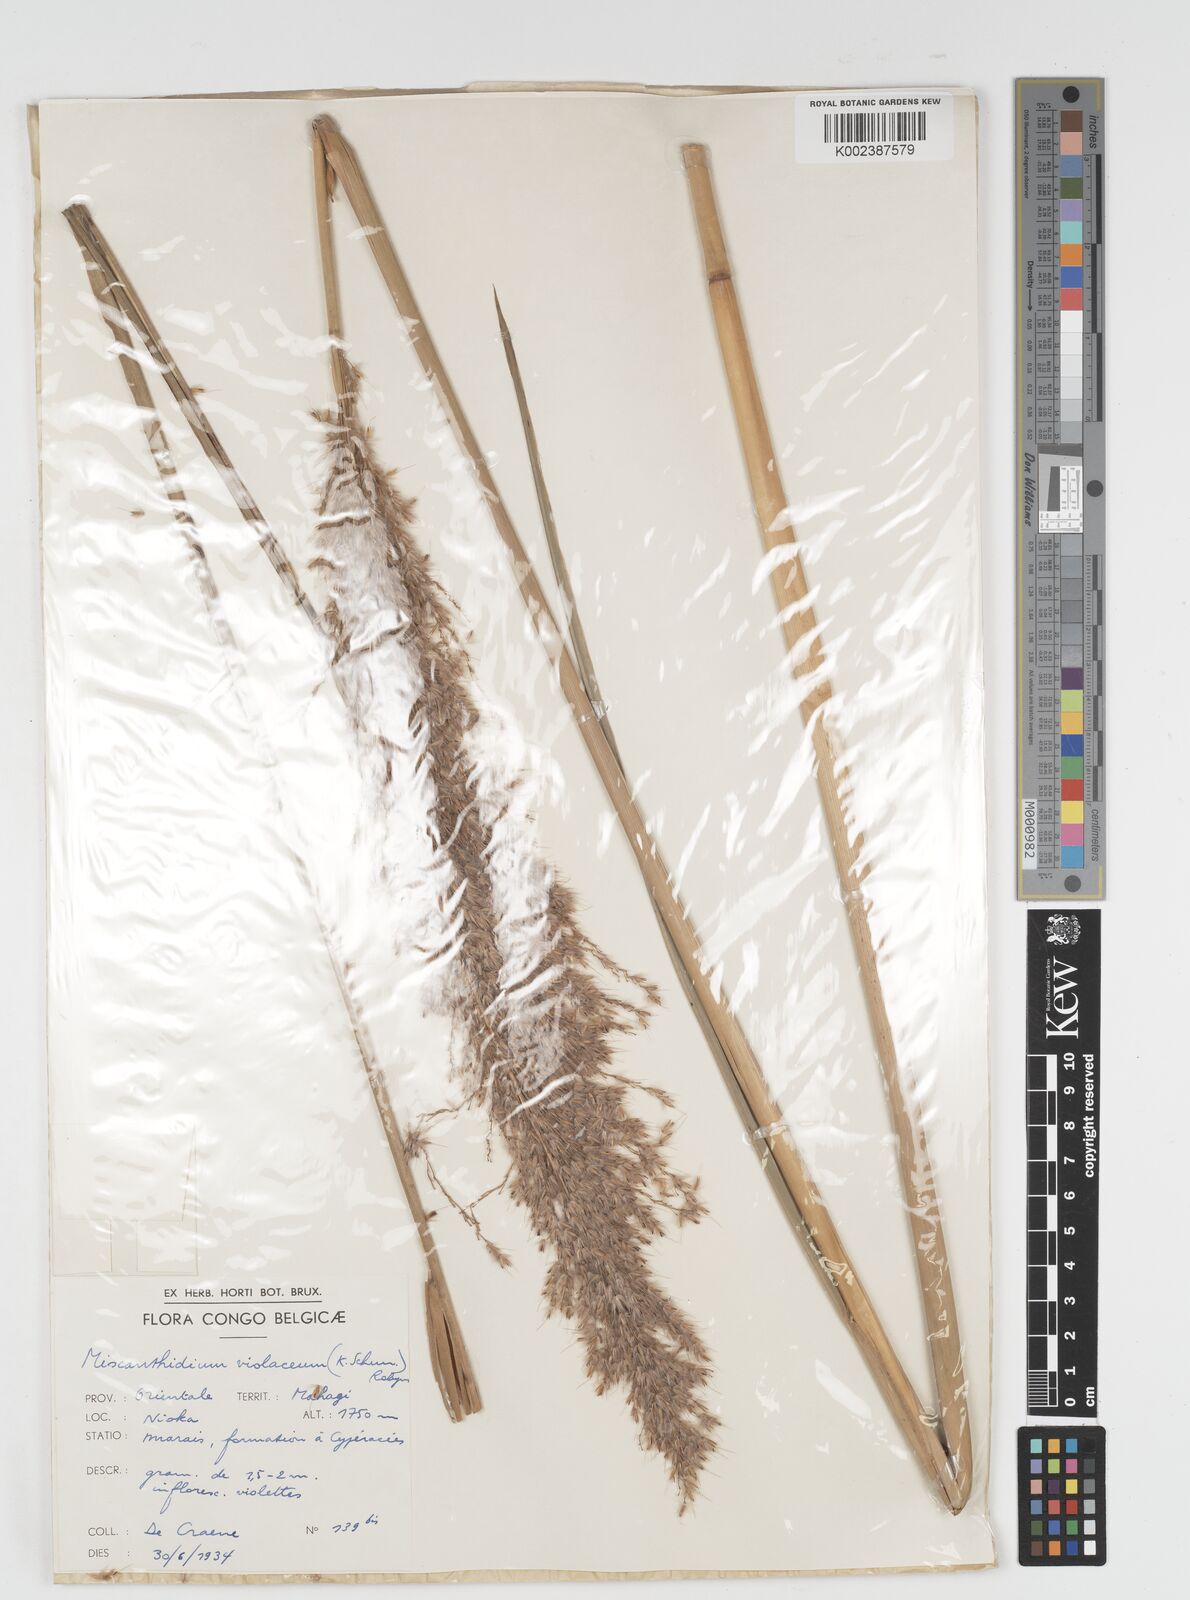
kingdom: Plantae
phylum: Tracheophyta
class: Liliopsida
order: Poales
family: Poaceae
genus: Miscanthidium
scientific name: Miscanthidium violaceum
